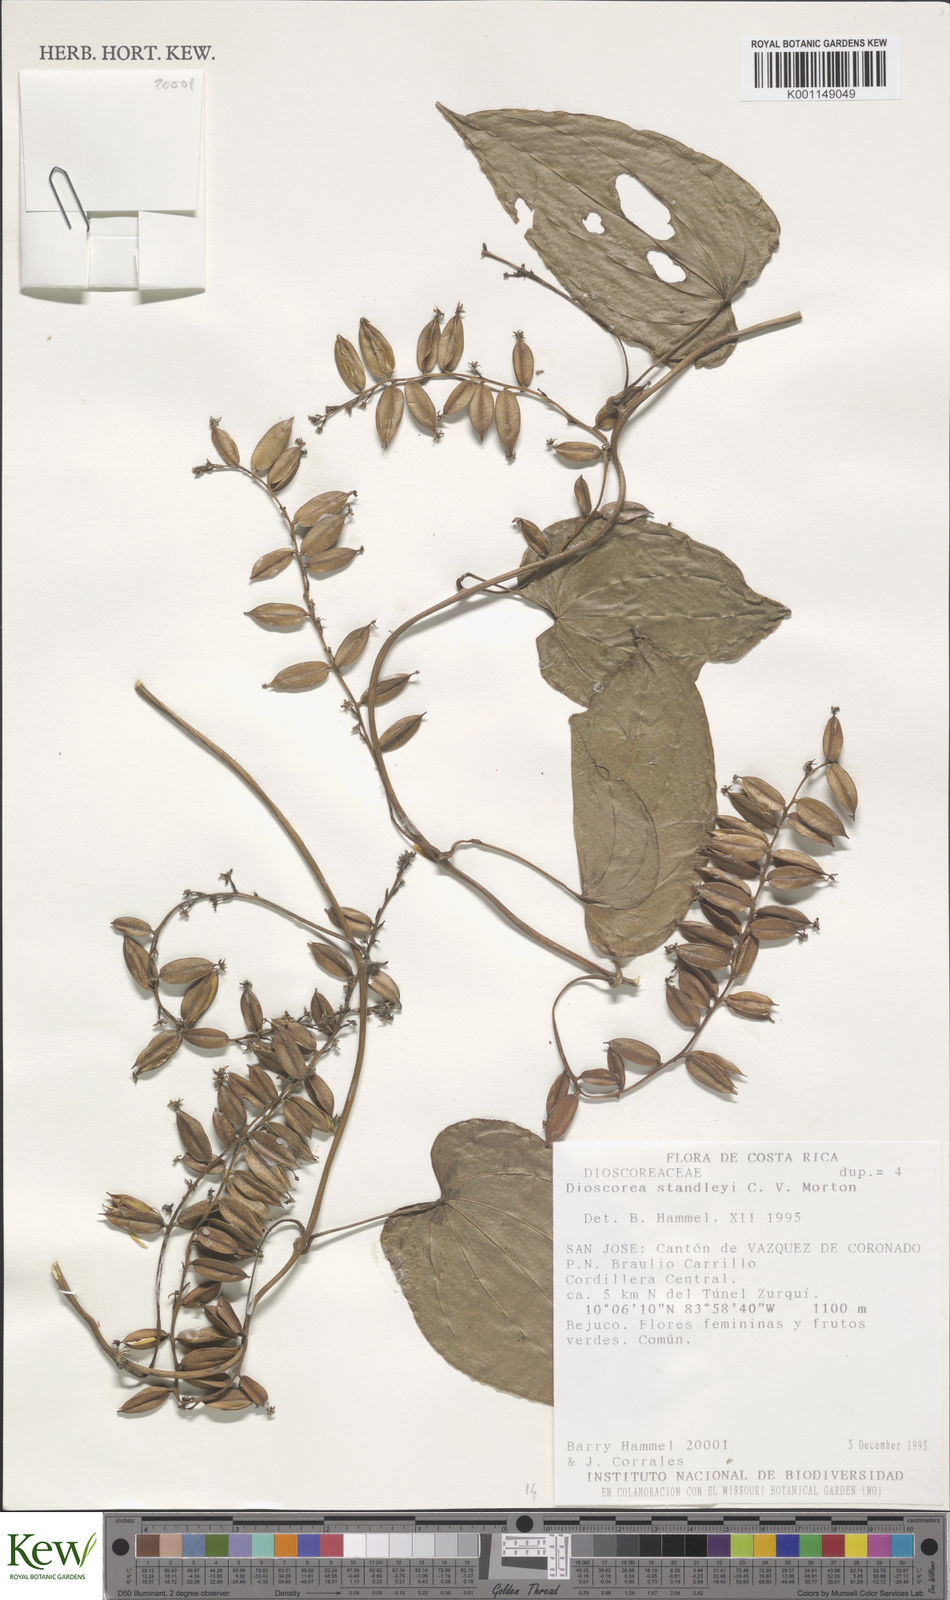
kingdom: Plantae
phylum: Tracheophyta
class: Liliopsida
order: Dioscoreales
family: Dioscoreaceae
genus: Dioscorea
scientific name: Dioscorea standleyi
